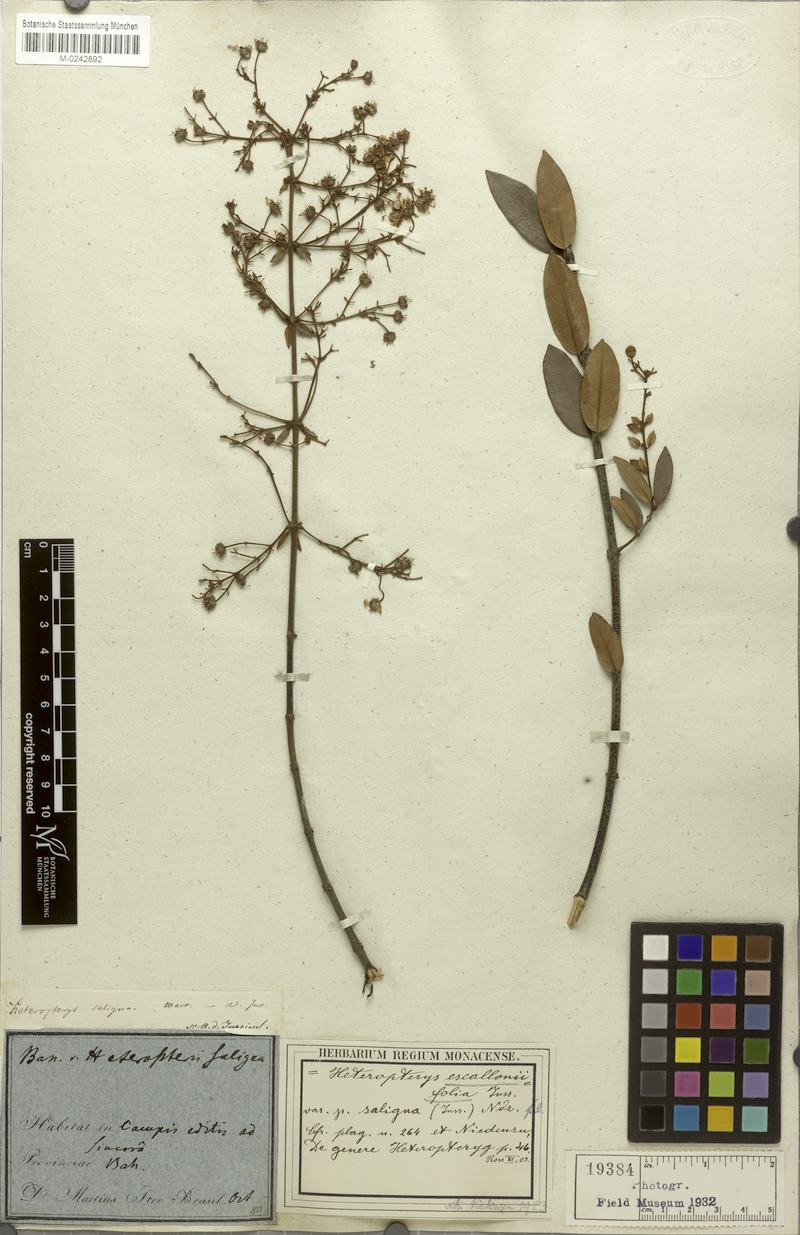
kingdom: Plantae
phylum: Tracheophyta
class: Magnoliopsida
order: Malpighiales
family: Malpighiaceae
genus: Heteropterys
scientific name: Heteropterys escalloniifolia
